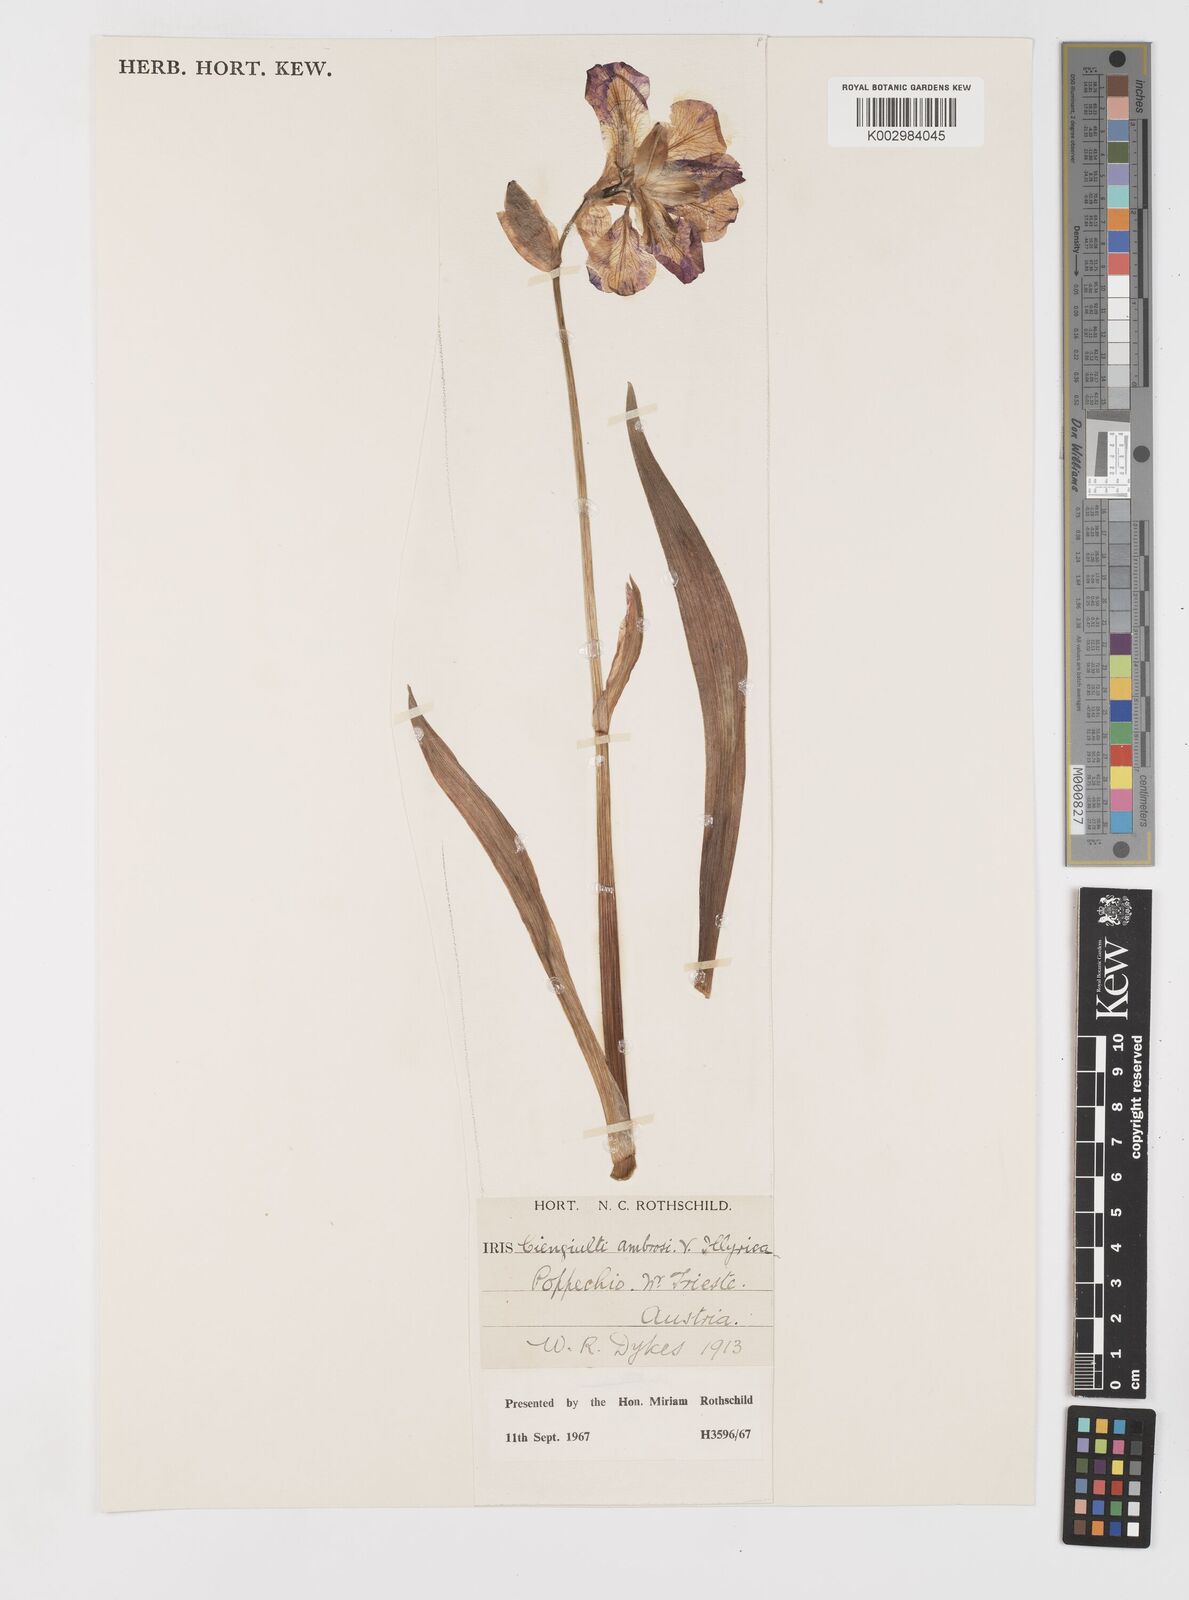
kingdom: Plantae
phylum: Tracheophyta
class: Liliopsida
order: Asparagales
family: Iridaceae
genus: Iris
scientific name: Iris pallida
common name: Sweet iris
